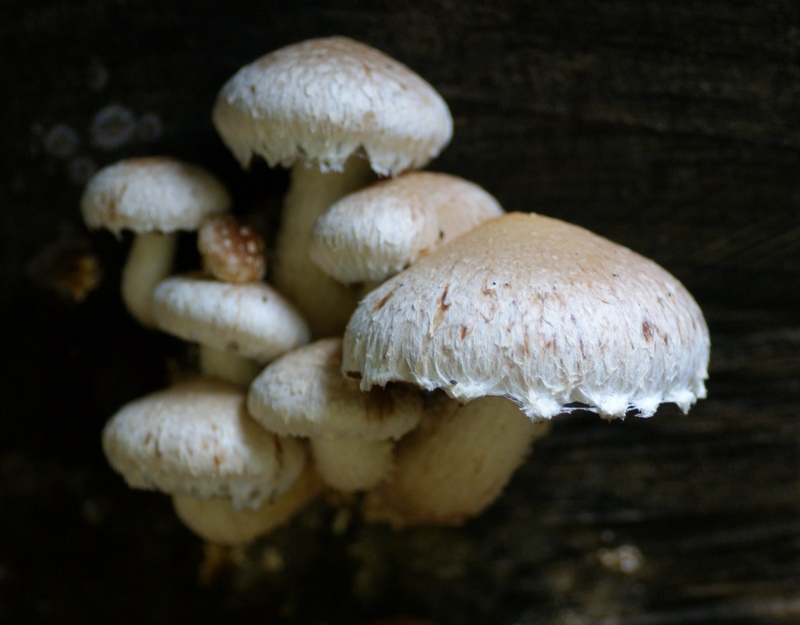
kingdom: Fungi
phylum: Basidiomycota
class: Agaricomycetes
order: Agaricales
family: Strophariaceae
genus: Pholiota
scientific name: Pholiota populnea
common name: poppel-kæmpeskælhat
